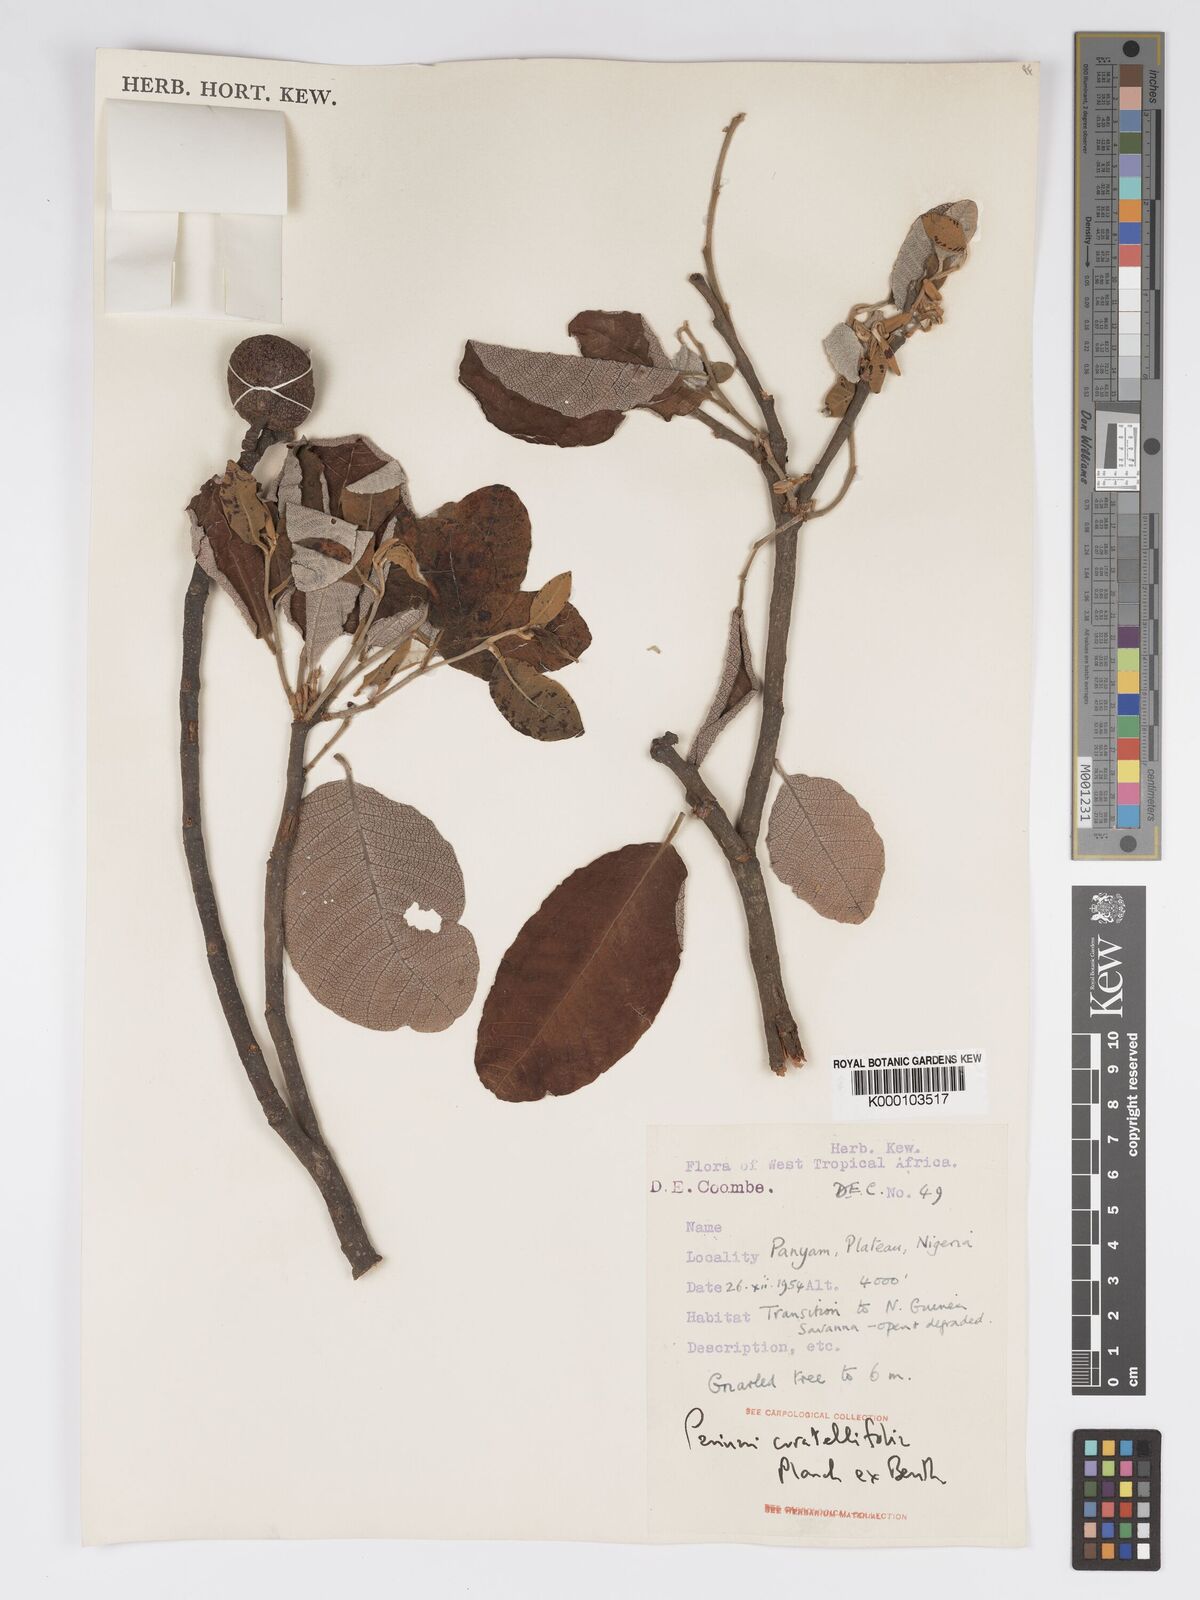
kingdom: Plantae
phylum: Tracheophyta
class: Magnoliopsida
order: Malpighiales
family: Chrysobalanaceae
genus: Parinari
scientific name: Parinari curatellifolia
